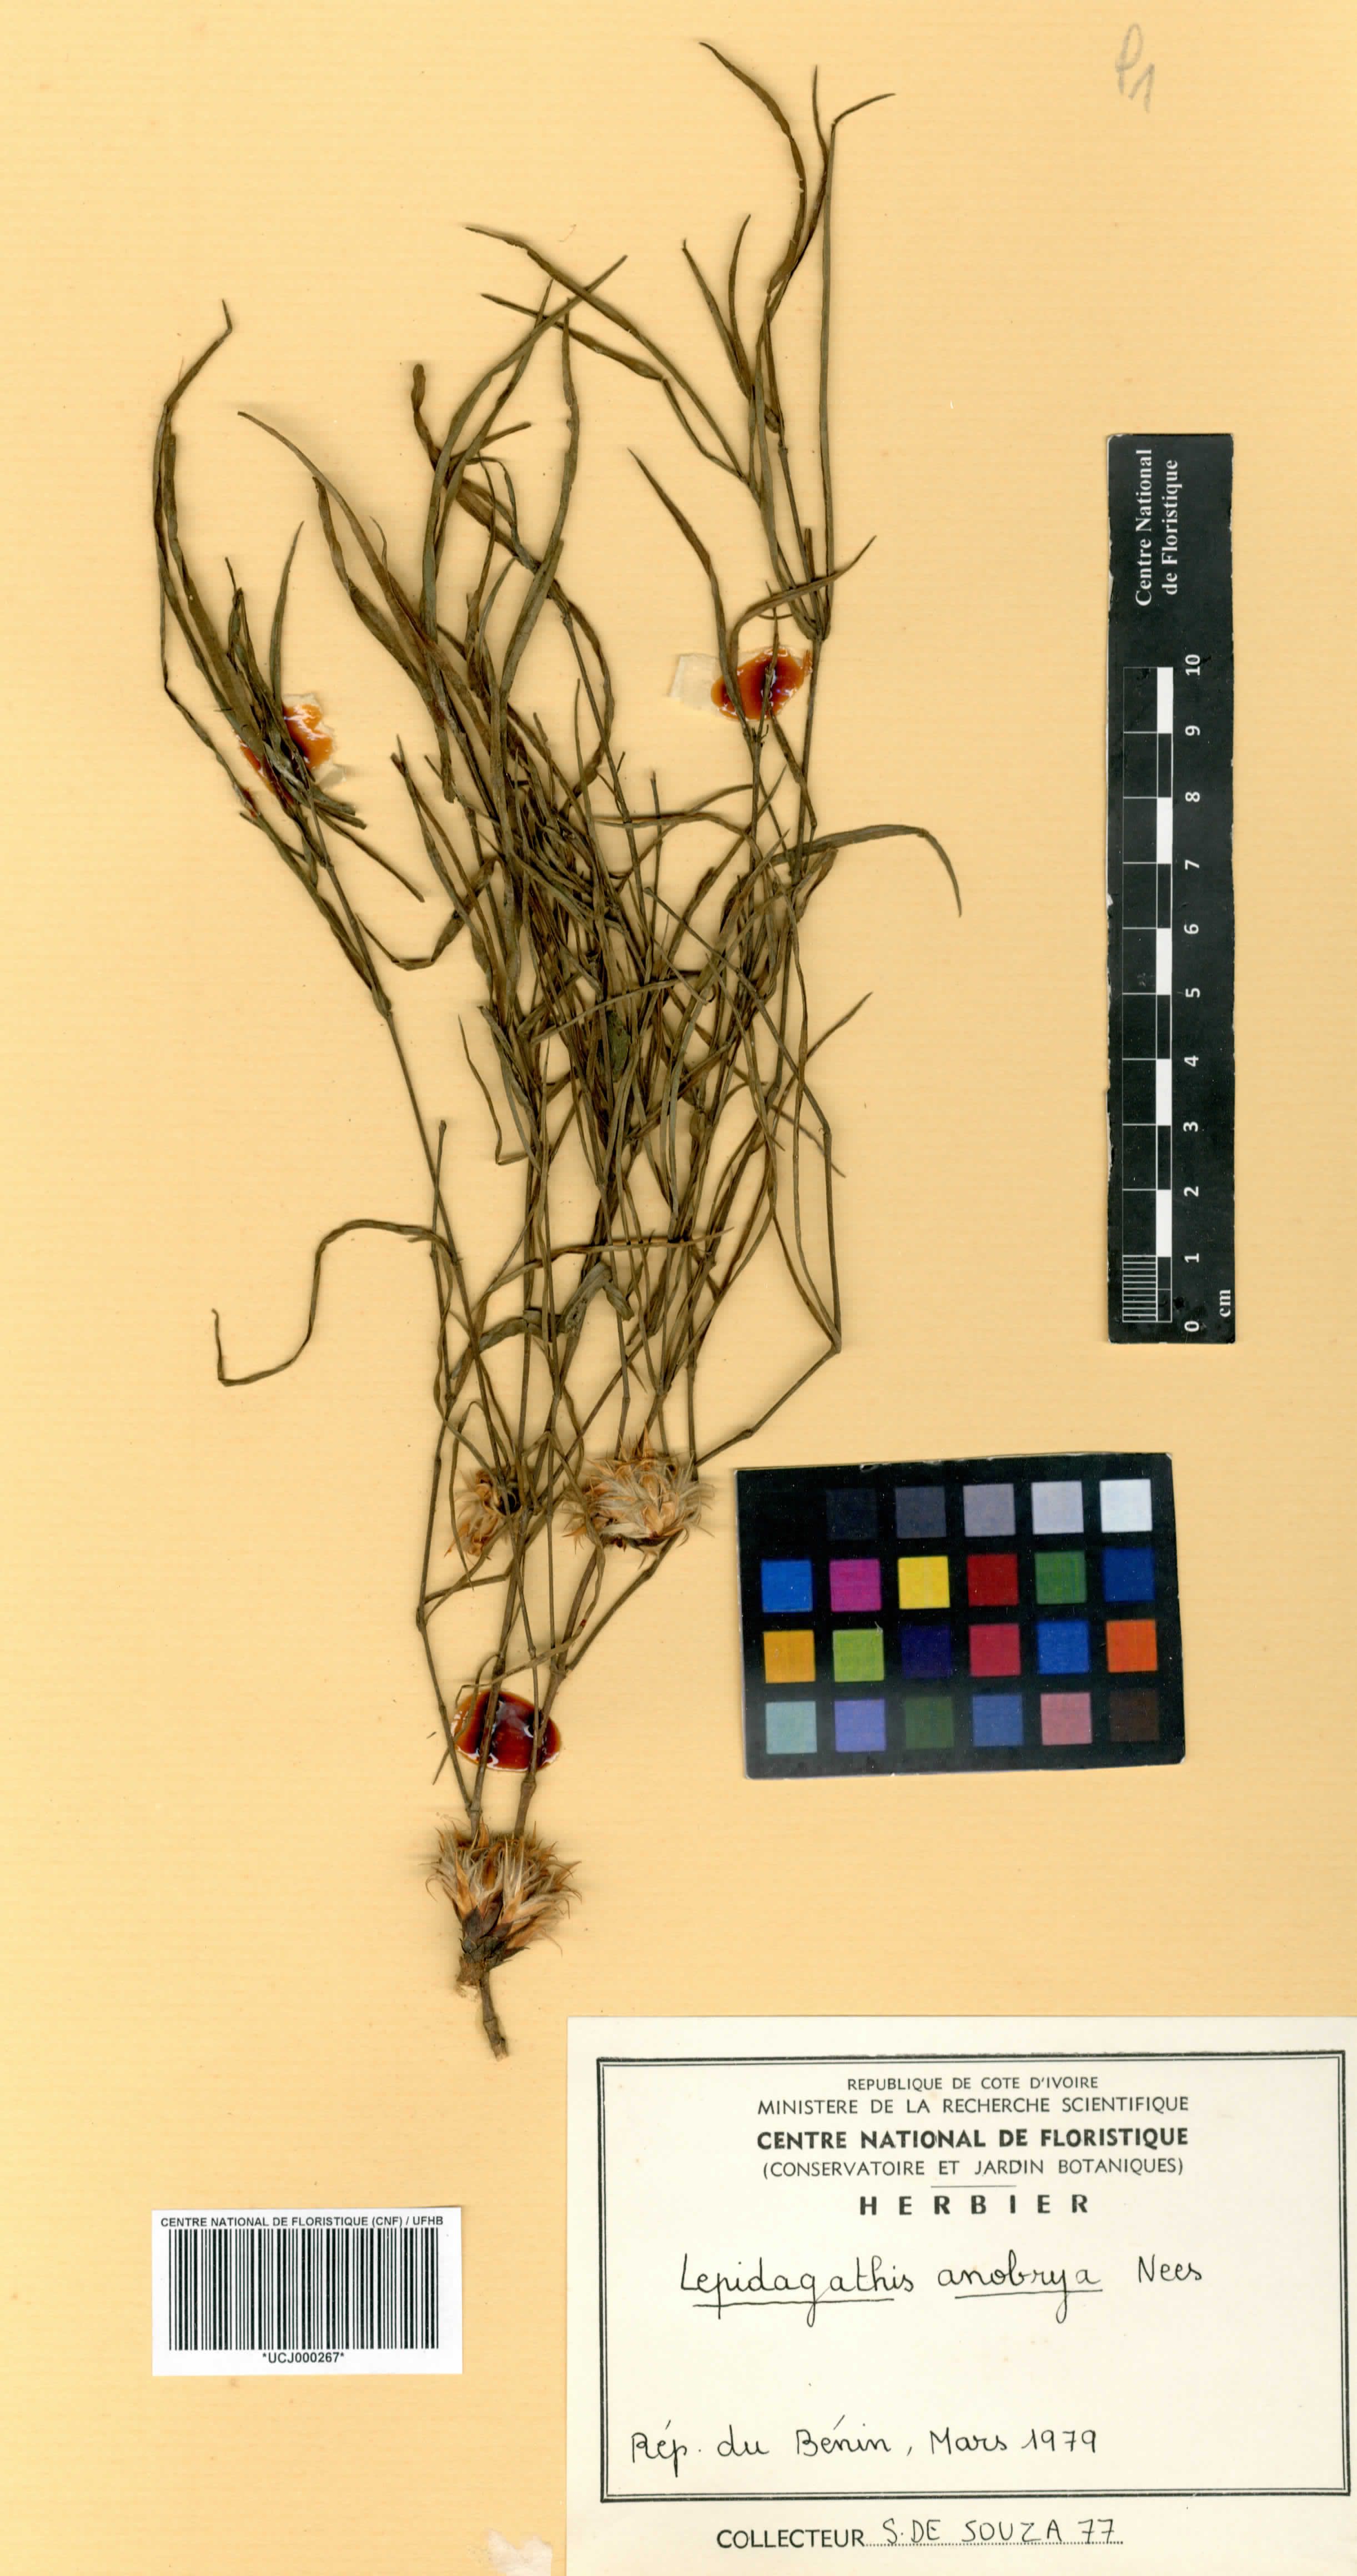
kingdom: Plantae
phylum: Tracheophyta
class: Magnoliopsida
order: Lamiales
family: Acanthaceae
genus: Lepidagathis
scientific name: Lepidagathis anobrya
